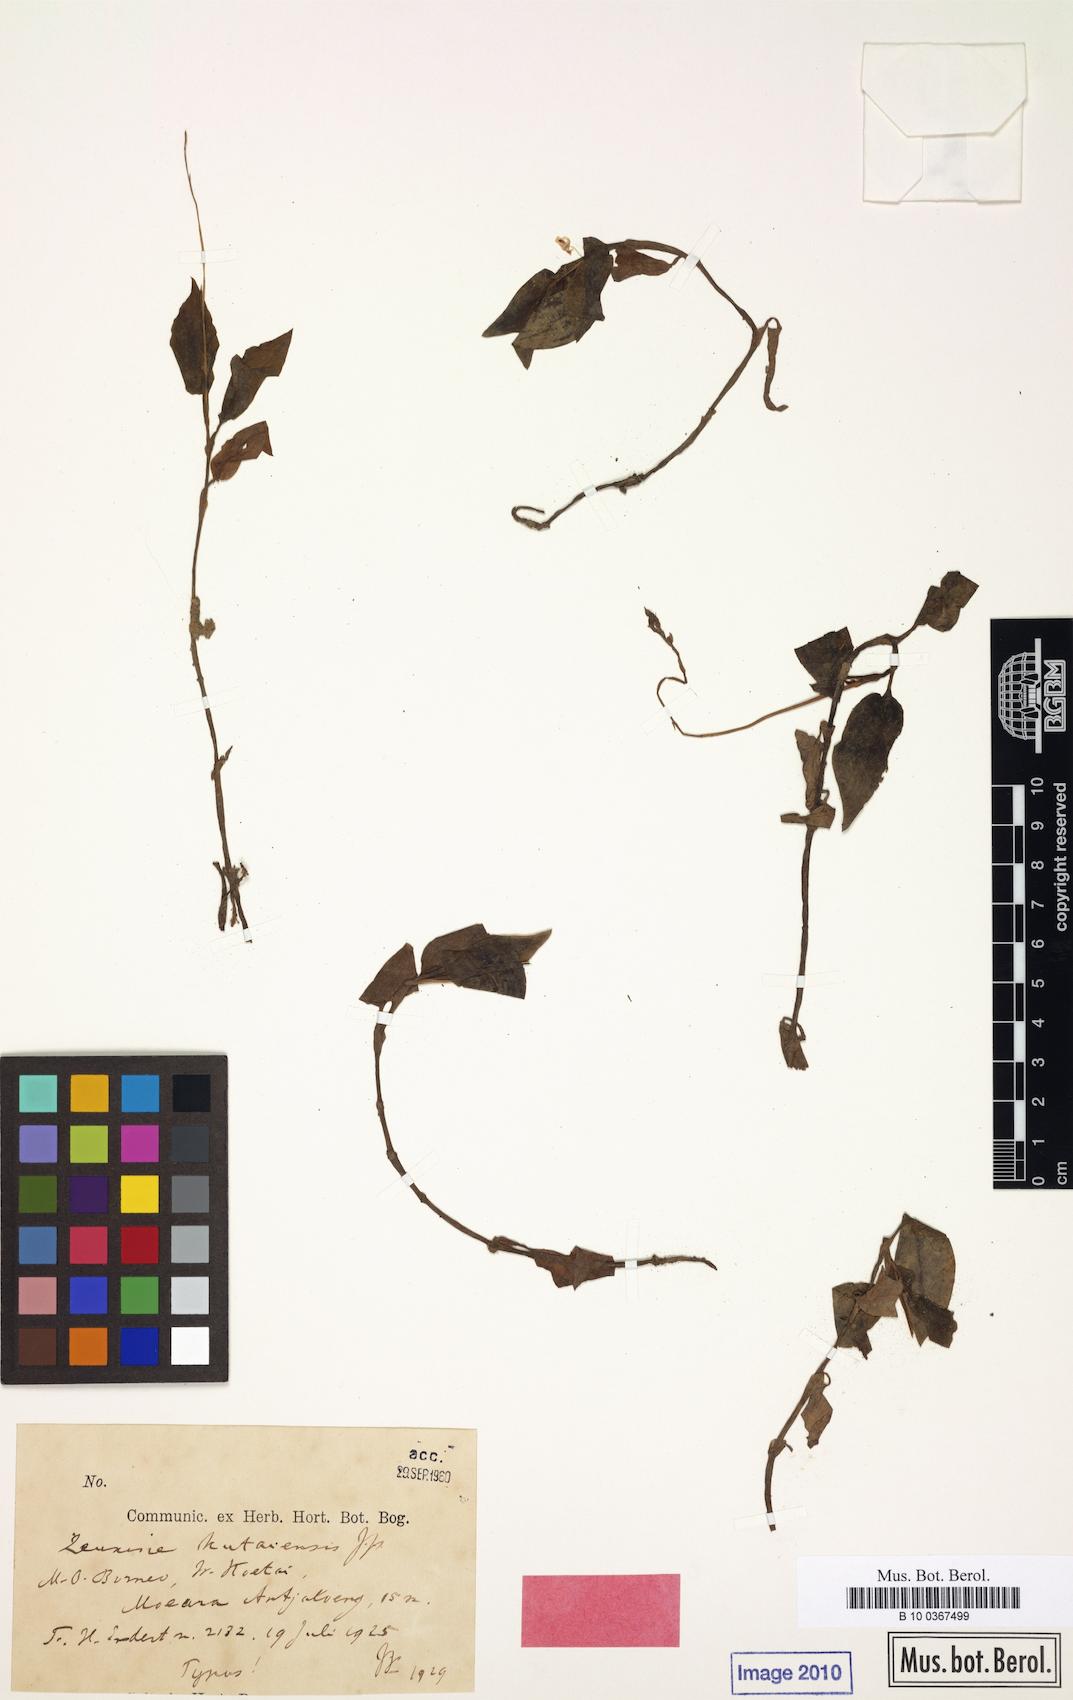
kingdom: Plantae
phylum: Tracheophyta
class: Liliopsida
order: Asparagales
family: Orchidaceae
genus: Zeuxine
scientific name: Zeuxine kutaiensis
